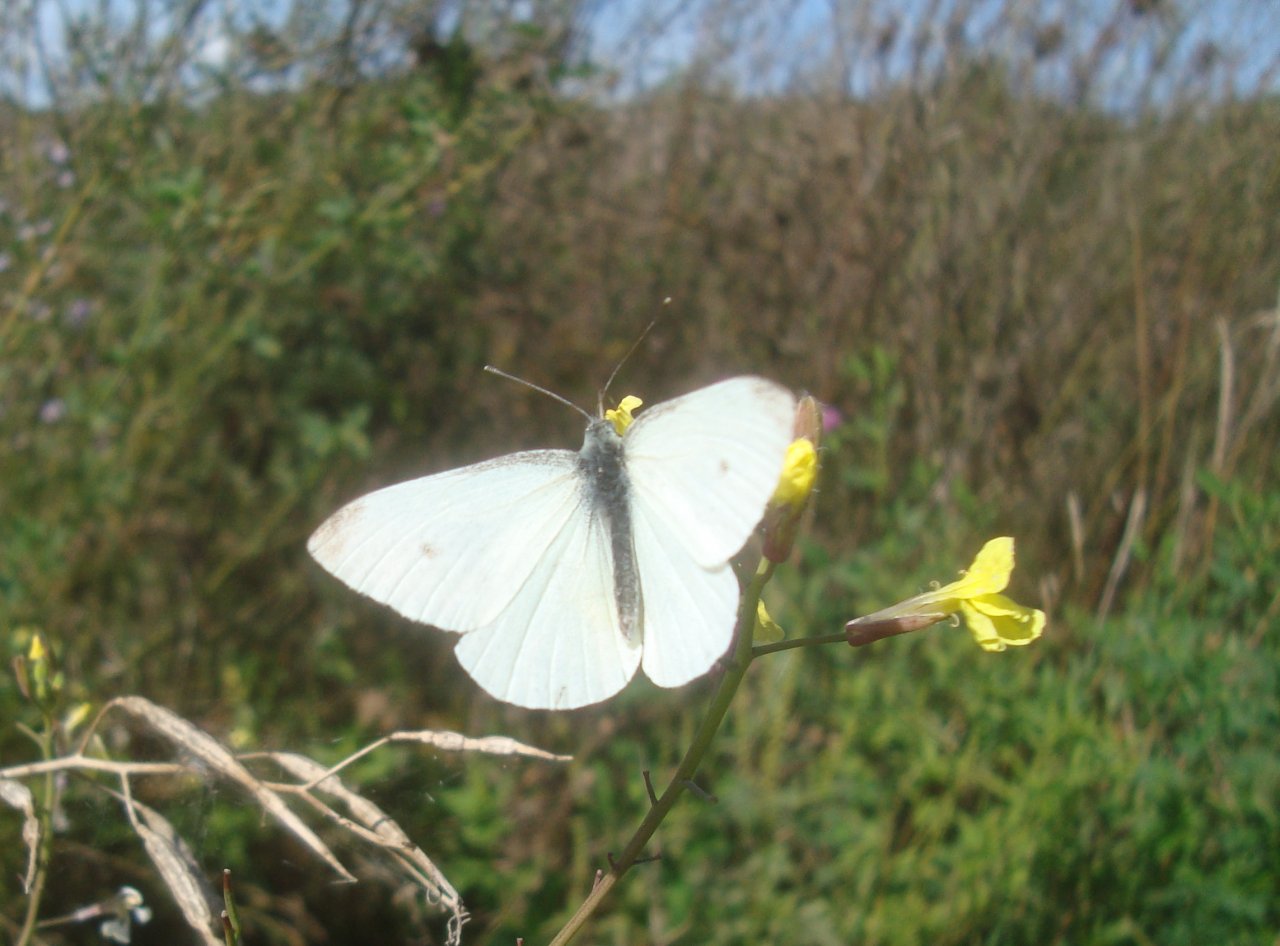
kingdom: Animalia
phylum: Arthropoda
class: Insecta
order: Lepidoptera
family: Pieridae
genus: Pieris
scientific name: Pieris rapae
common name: Cabbage White
